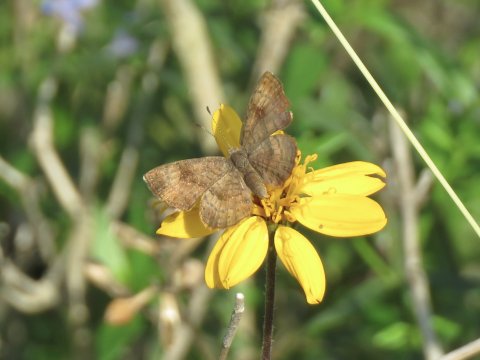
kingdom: Animalia
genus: Calephelis
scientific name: Calephelis nemesis
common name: Fatal Metalmark
